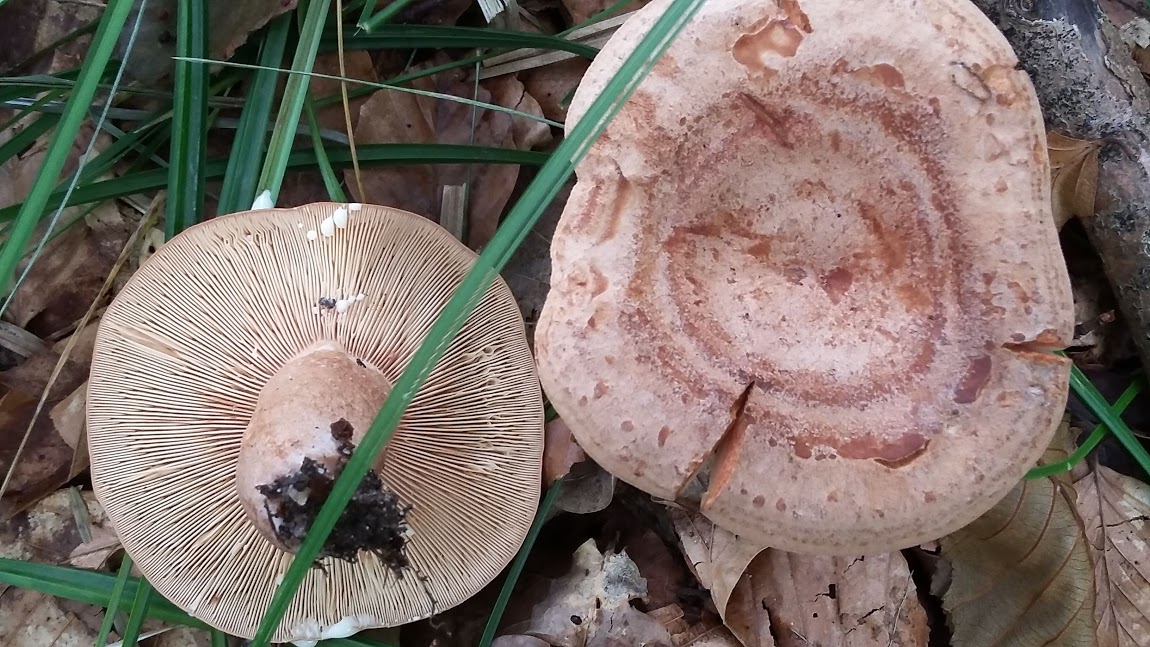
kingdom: Fungi
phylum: Basidiomycota
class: Agaricomycetes
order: Russulales
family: Russulaceae
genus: Lactarius
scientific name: Lactarius quietus
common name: ege-mælkehat
